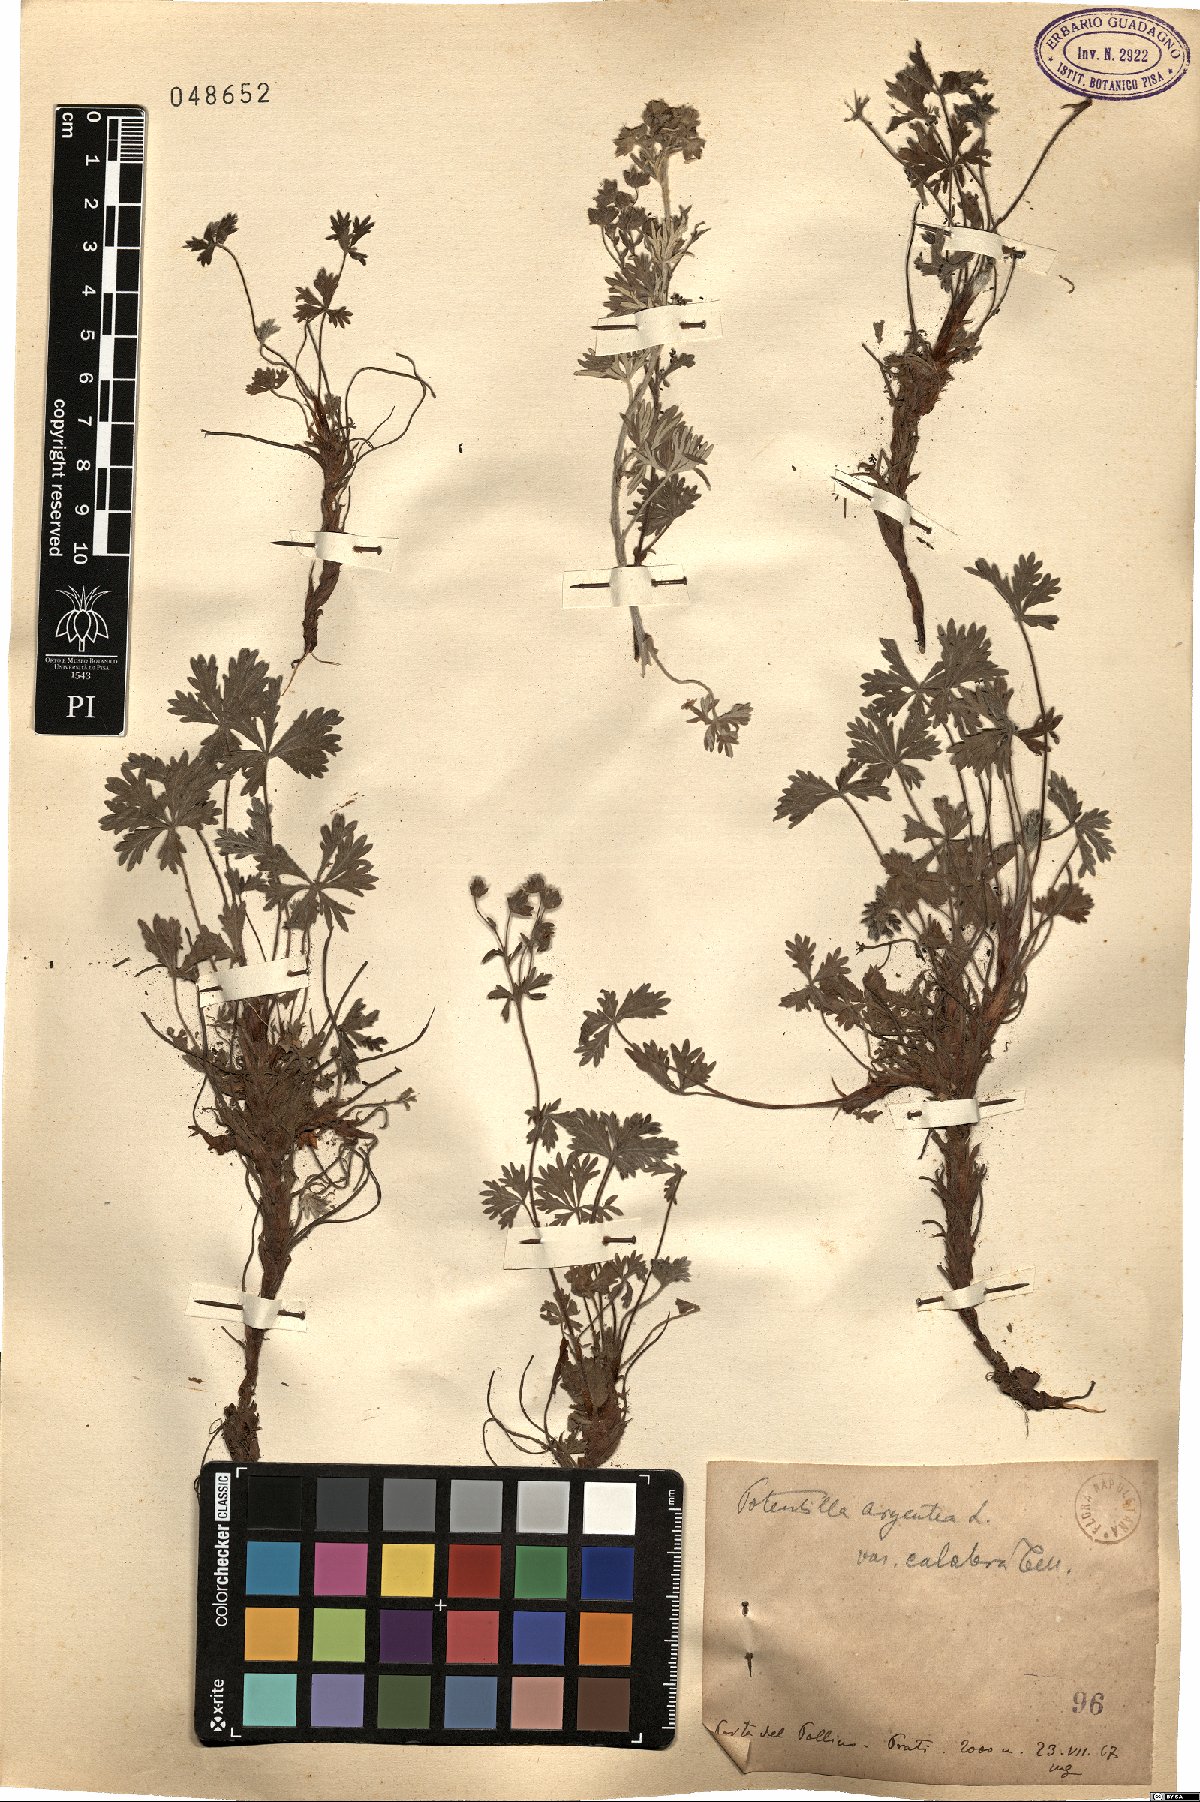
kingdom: Plantae
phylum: Tracheophyta
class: Magnoliopsida
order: Rosales
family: Rosaceae
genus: Potentilla
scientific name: Potentilla calabra
